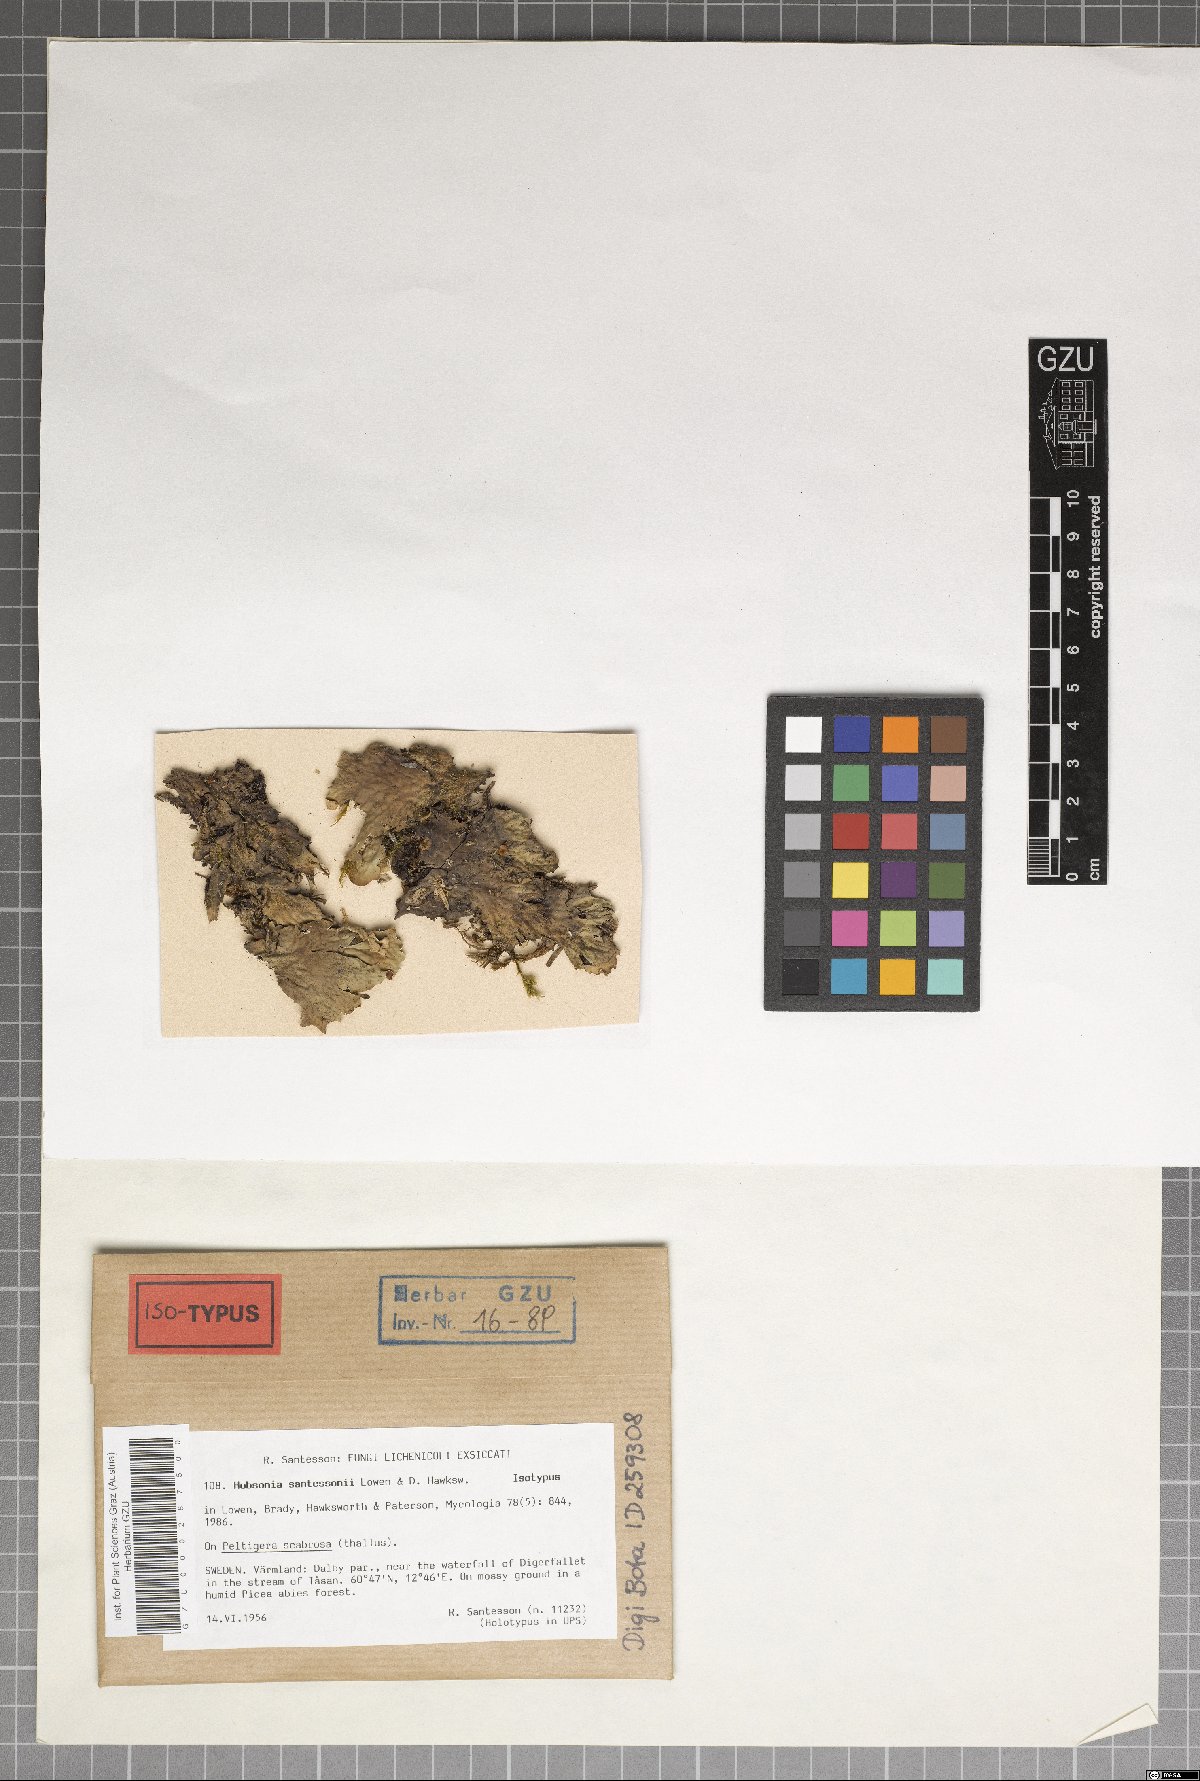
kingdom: Fungi
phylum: Ascomycota
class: Dothideomycetes
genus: Hobsoniopsis
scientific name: Hobsoniopsis santessonii
